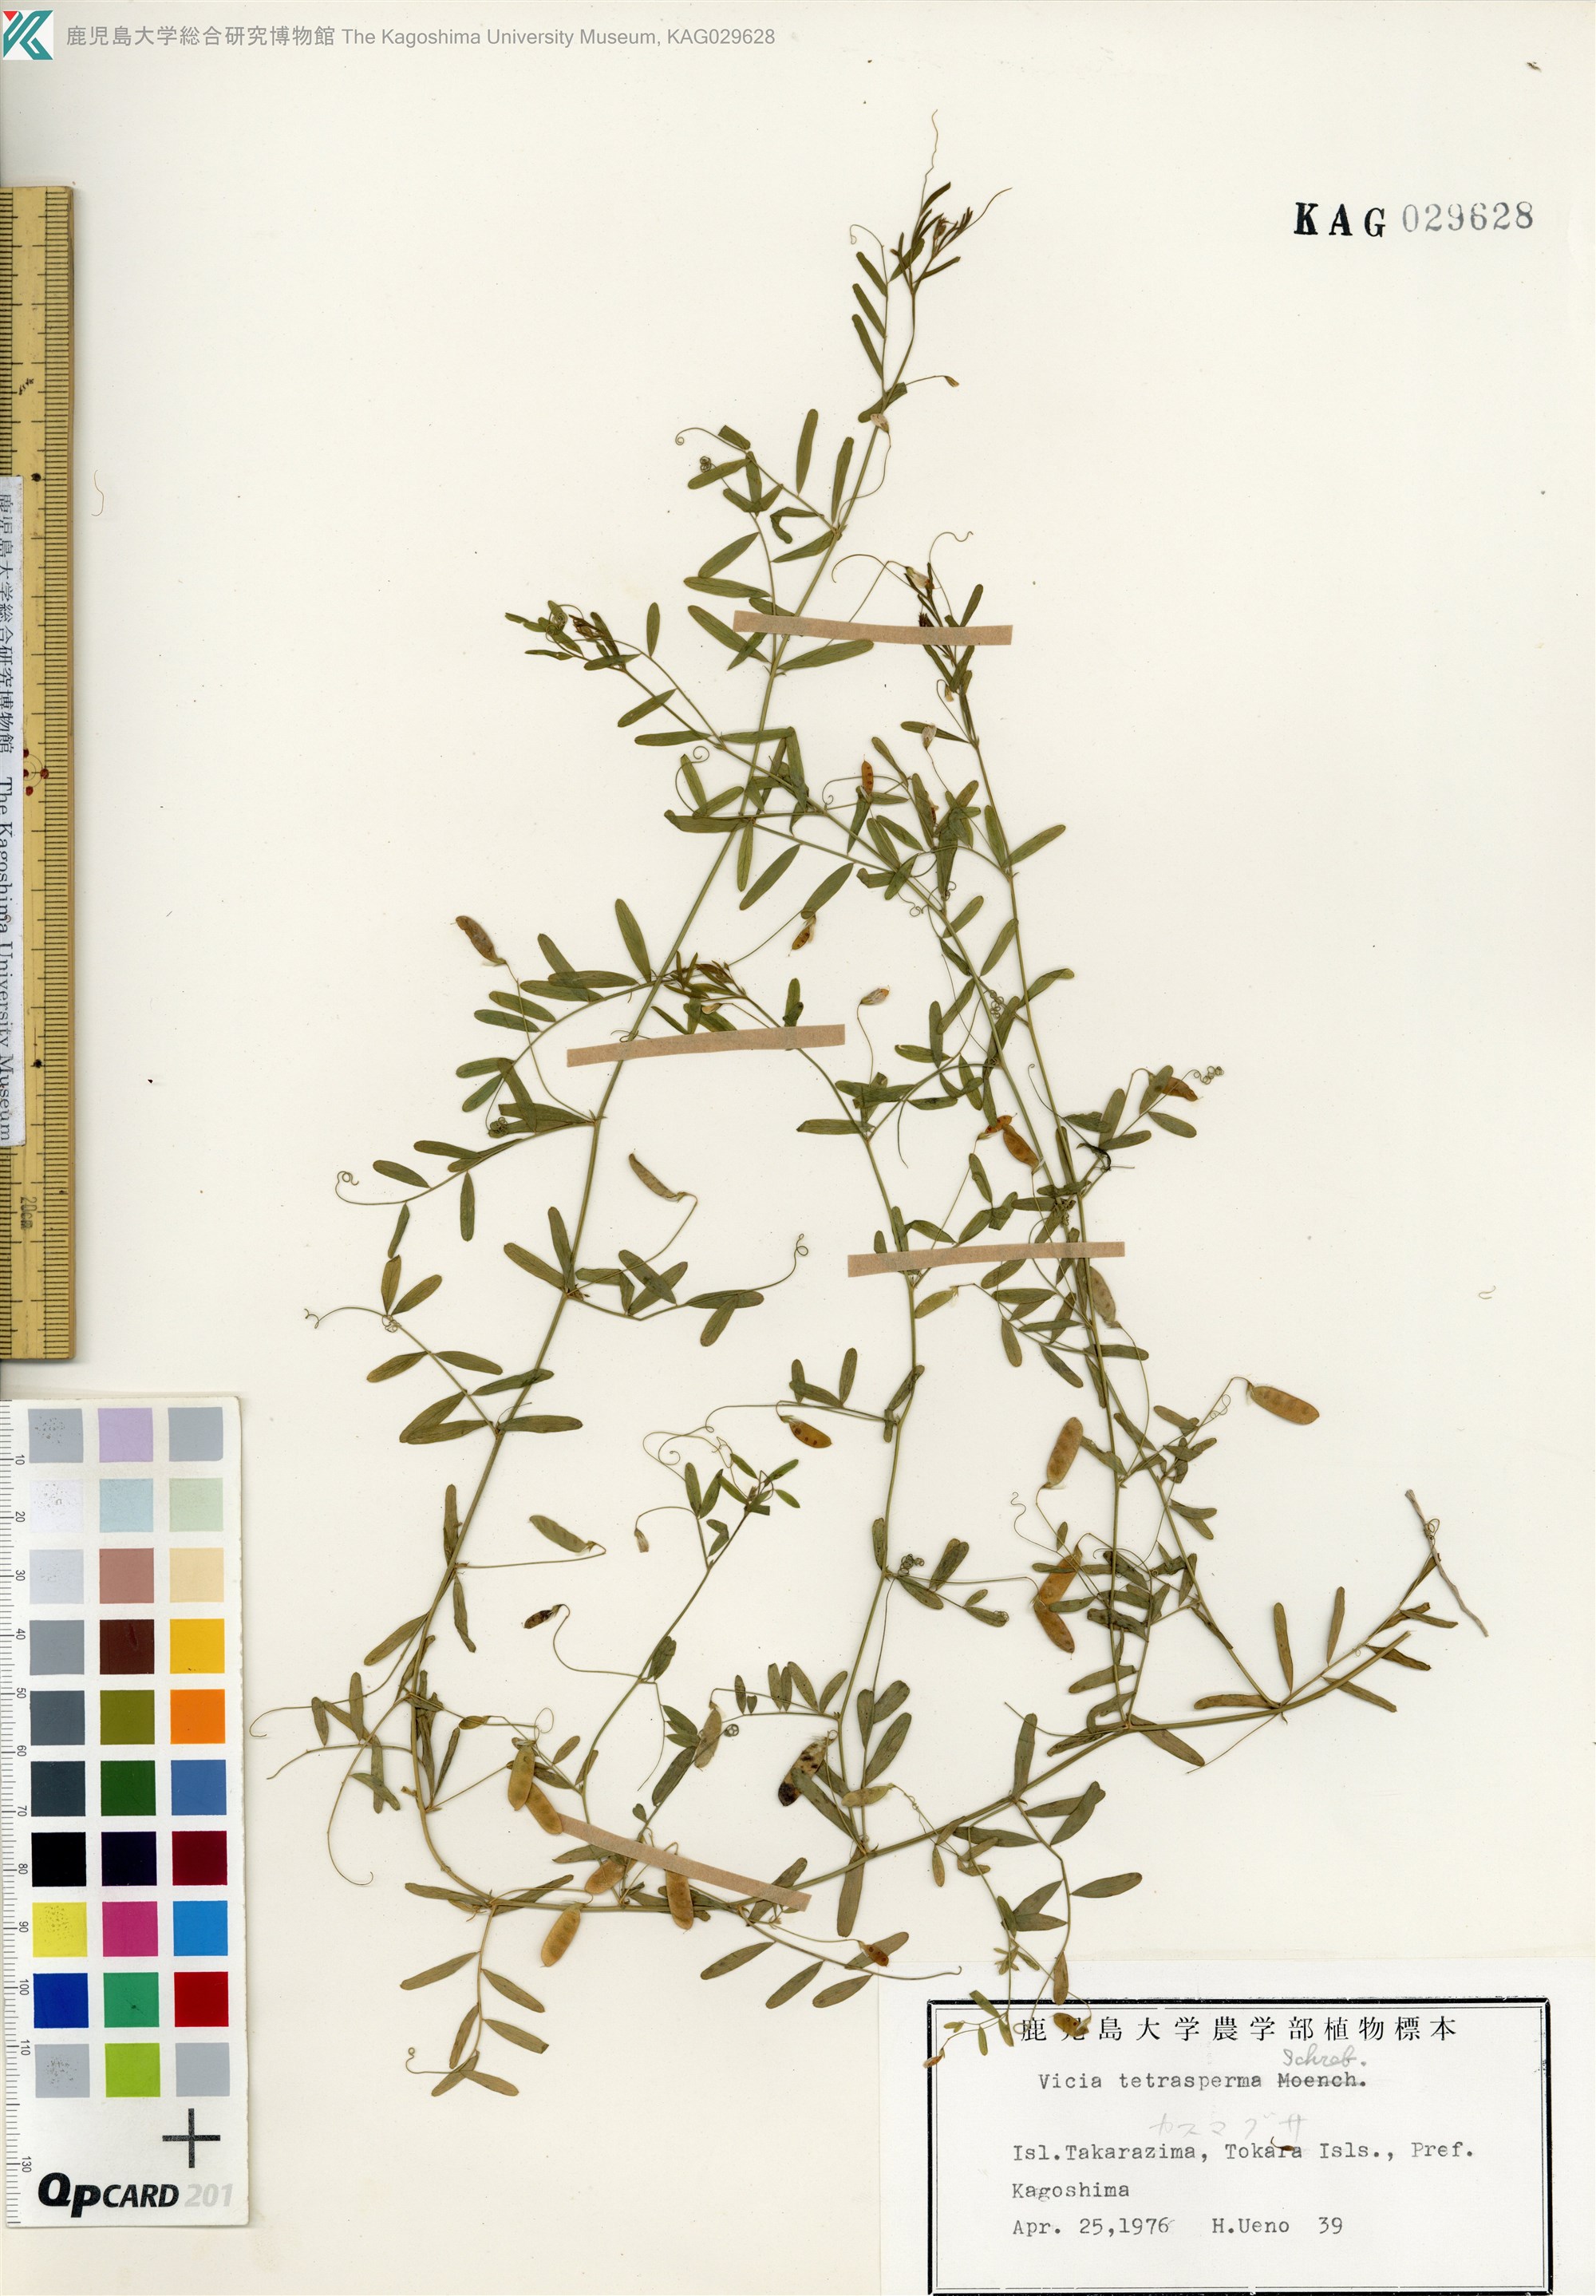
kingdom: Plantae
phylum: Tracheophyta
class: Magnoliopsida
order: Fabales
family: Fabaceae
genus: Vicia
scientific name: Vicia tetrasperma
